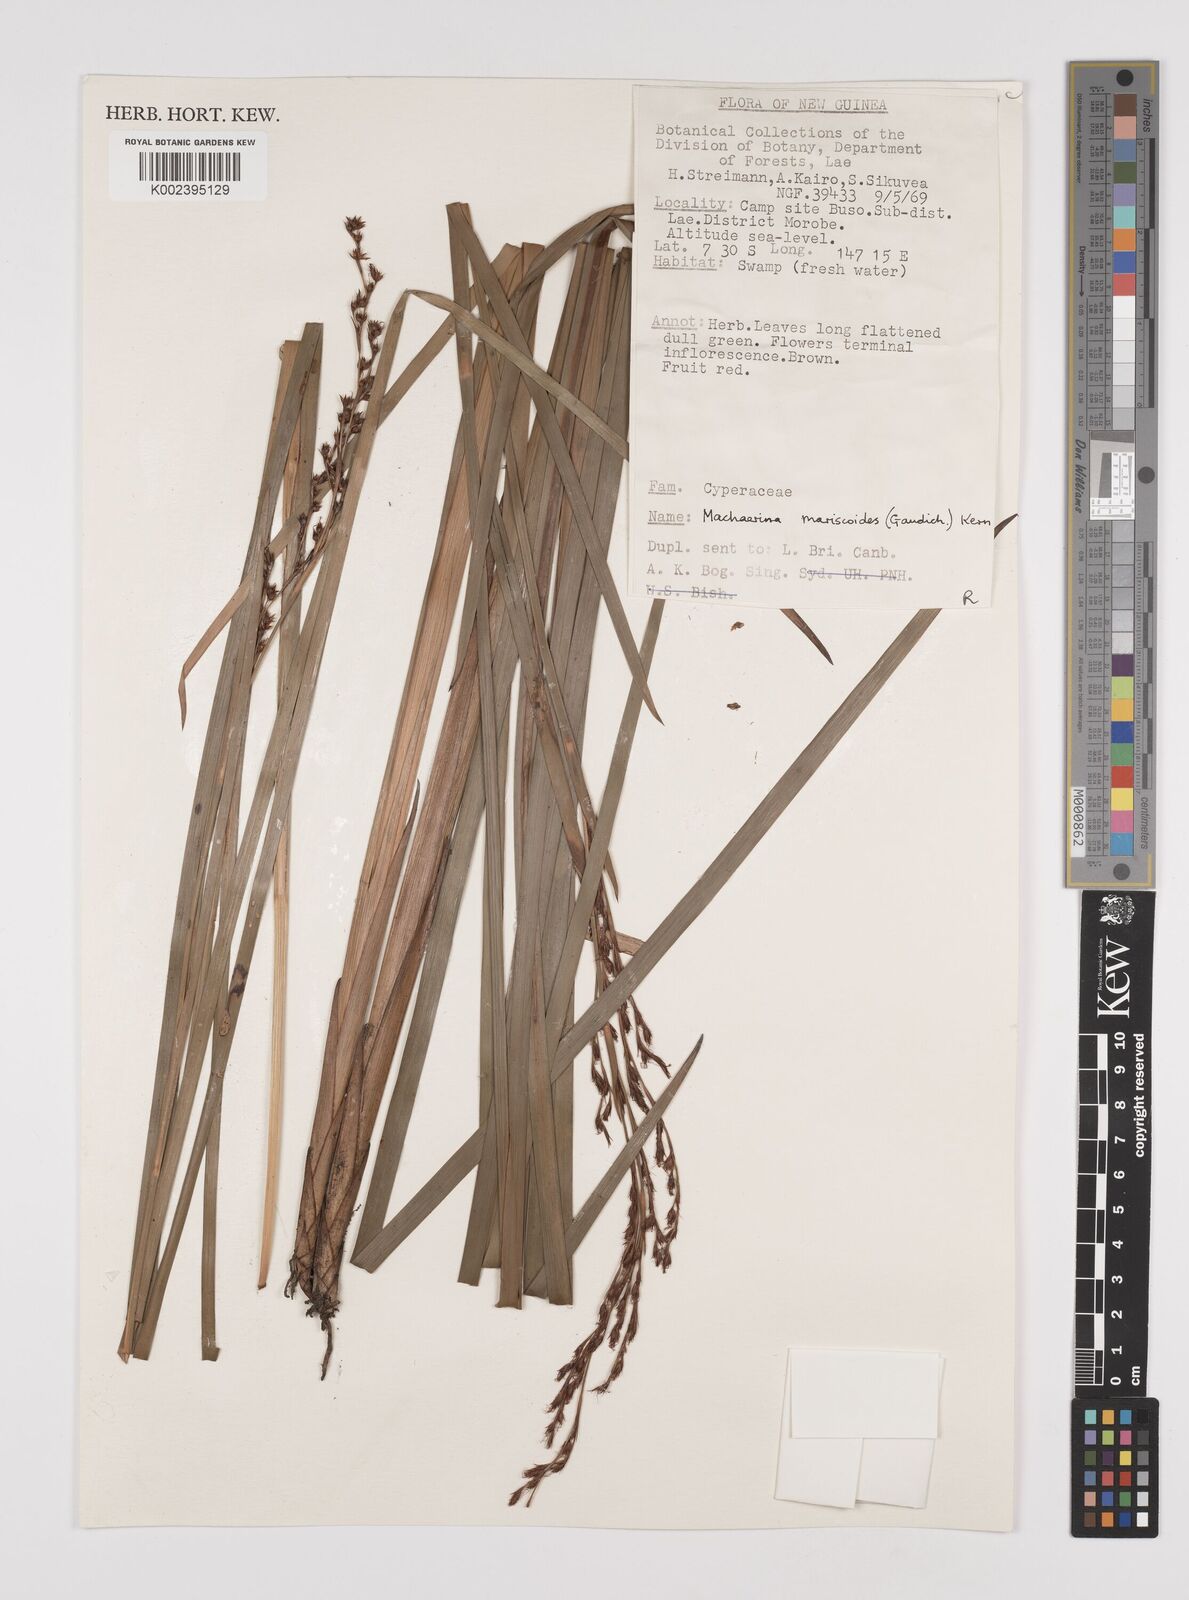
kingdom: Plantae
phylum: Tracheophyta
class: Liliopsida
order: Poales
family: Cyperaceae
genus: Machaerina
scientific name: Machaerina mariscoides
